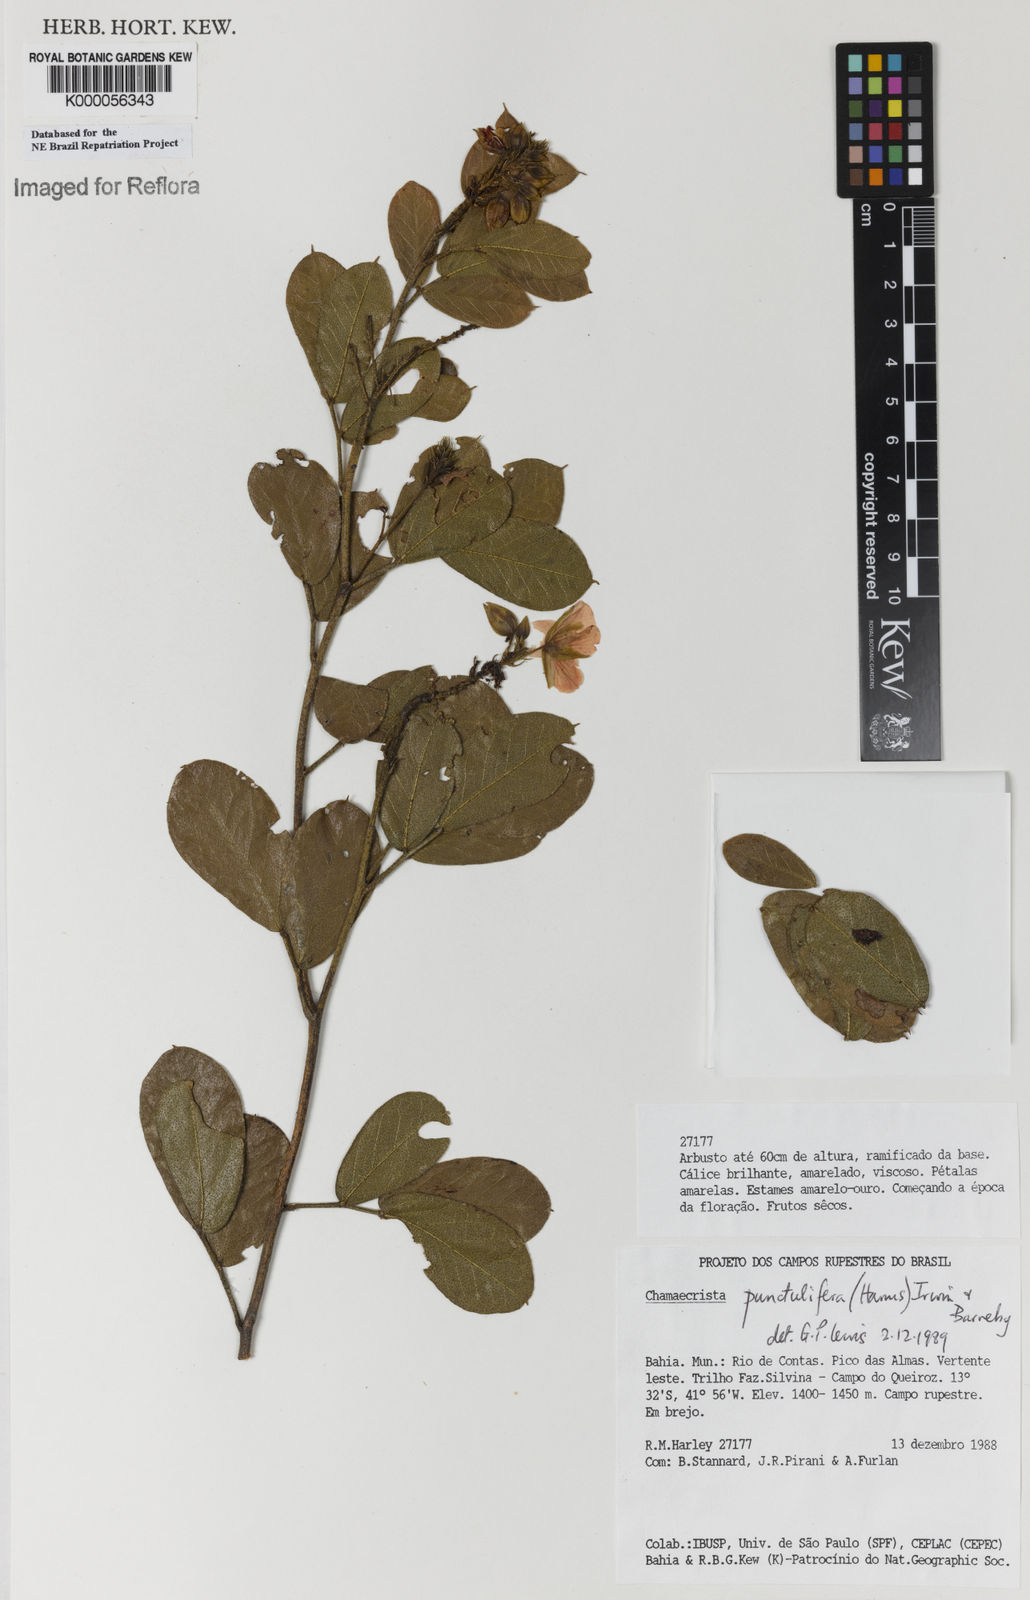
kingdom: Plantae
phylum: Tracheophyta
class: Magnoliopsida
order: Fabales
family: Fabaceae
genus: Chamaecrista
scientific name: Chamaecrista punctulifera
